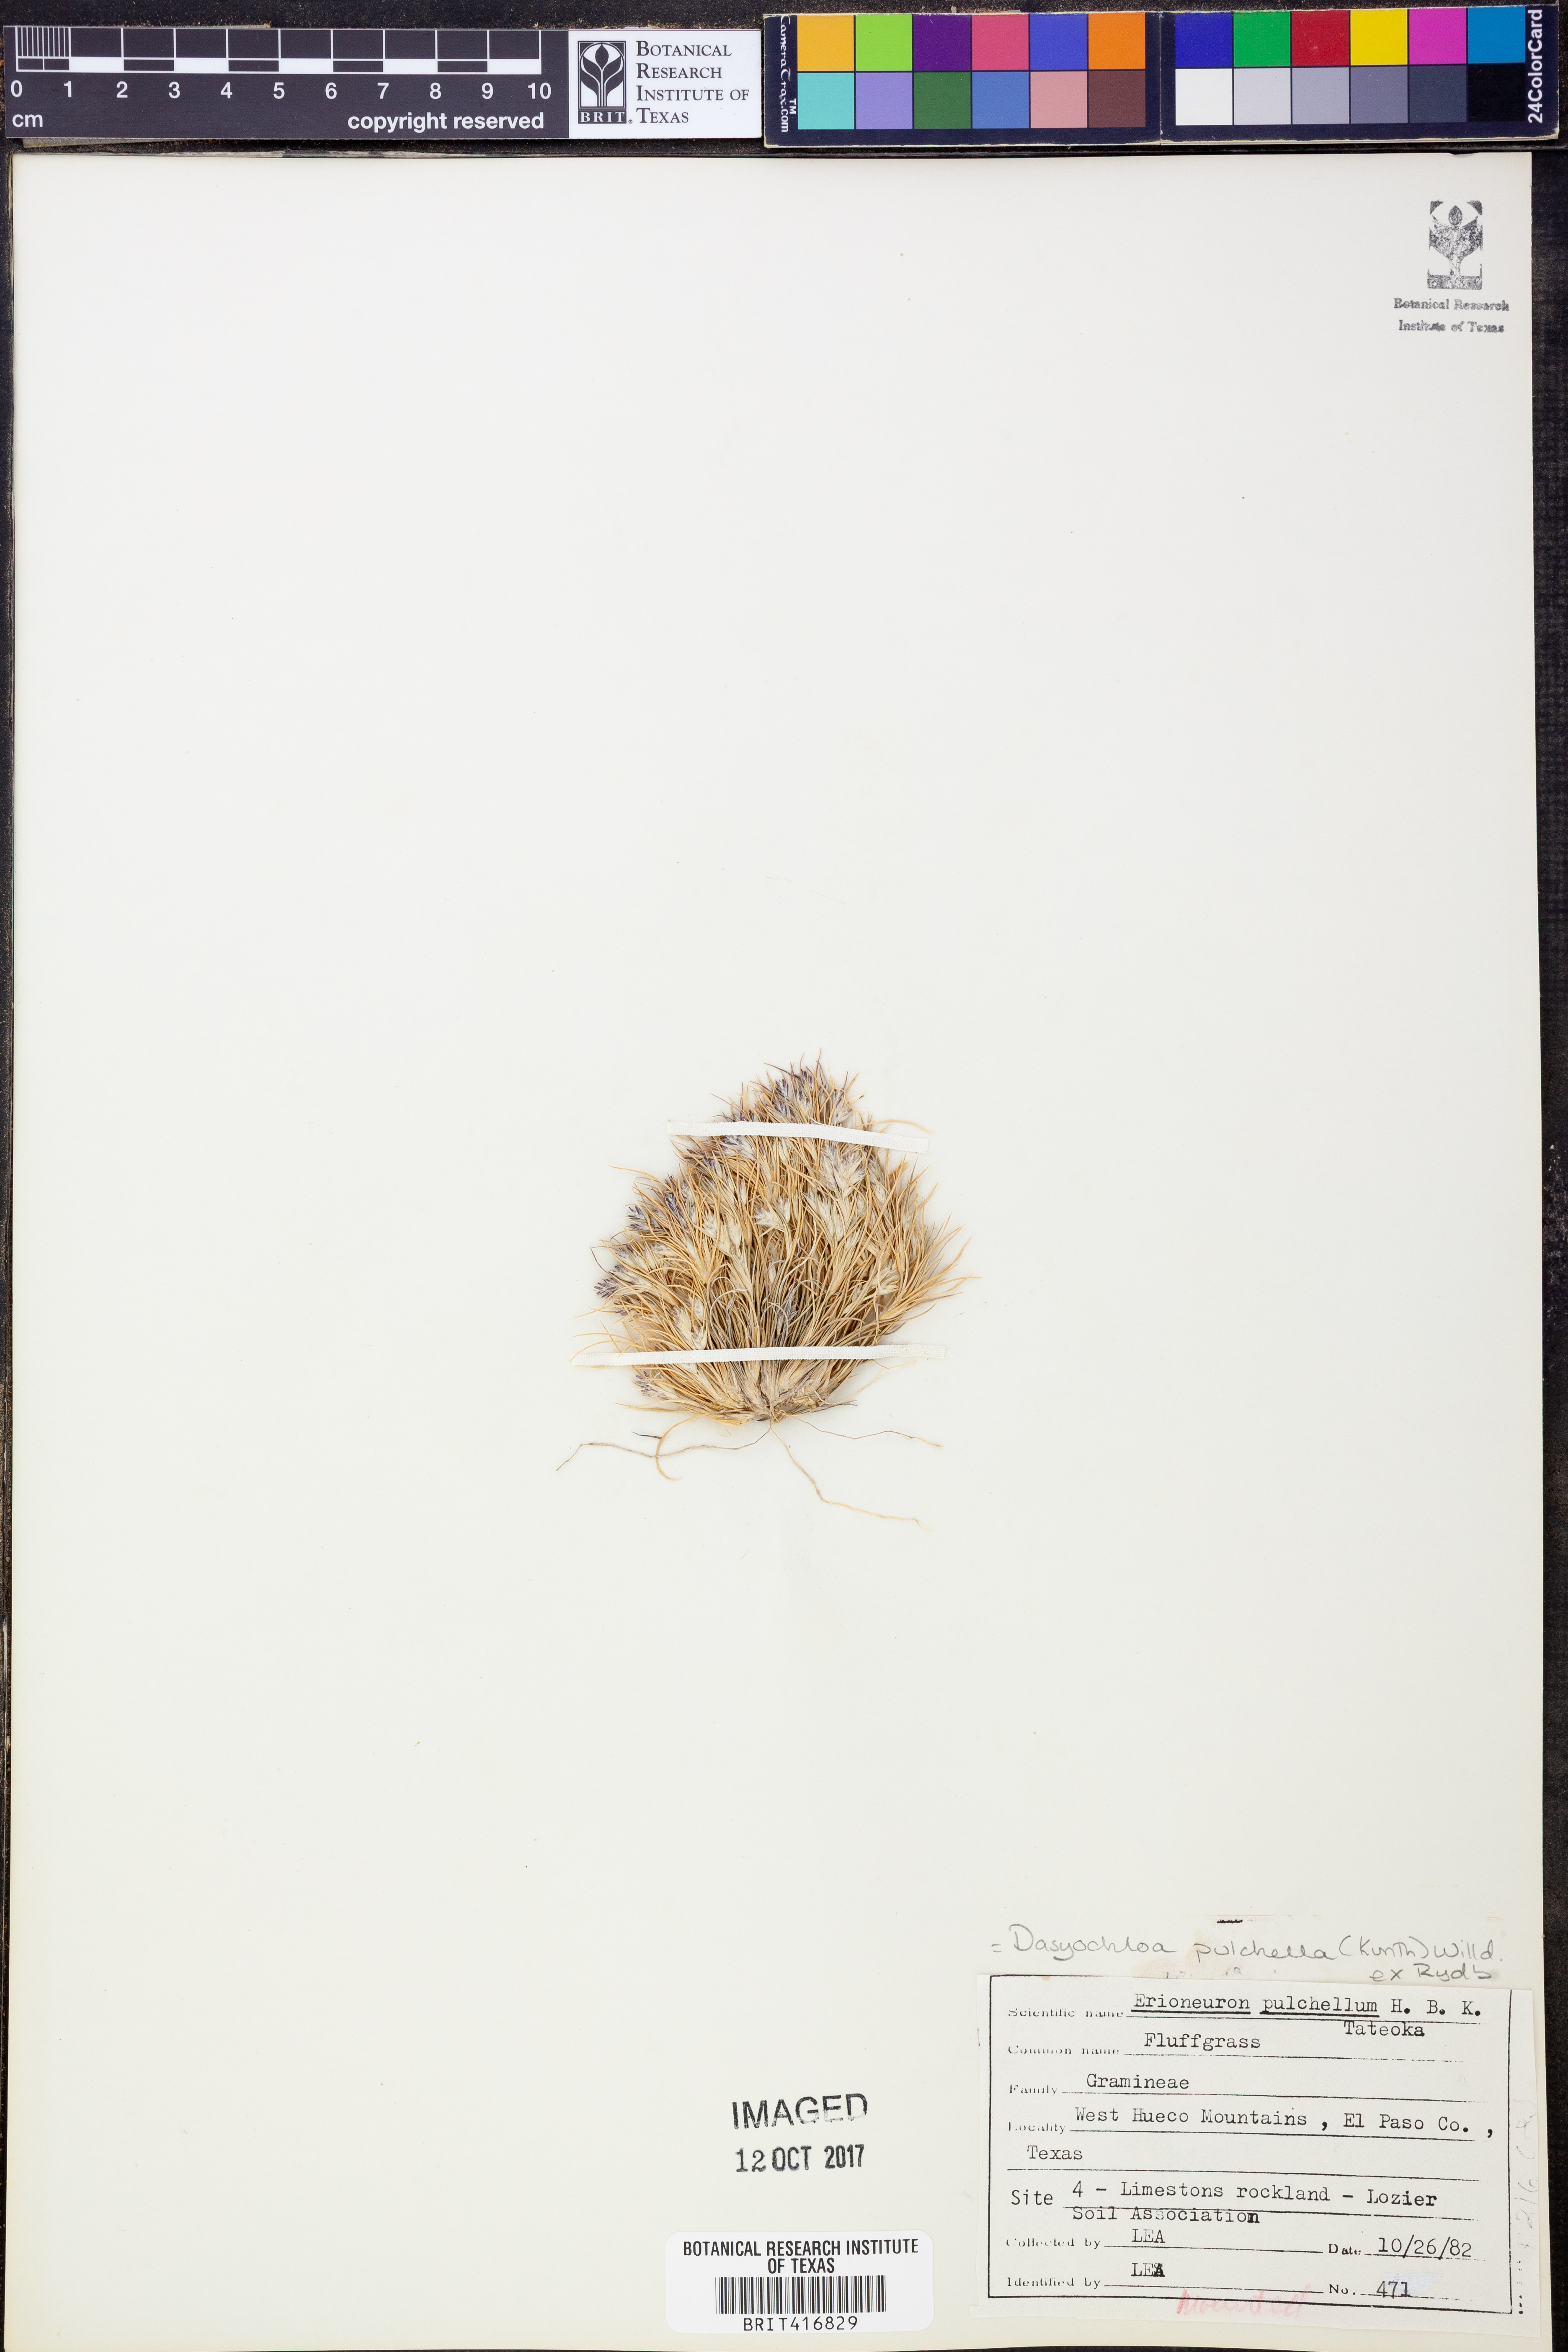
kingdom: Plantae
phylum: Tracheophyta
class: Liliopsida
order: Poales
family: Poaceae
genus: Munroa
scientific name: Munroa pulchella
